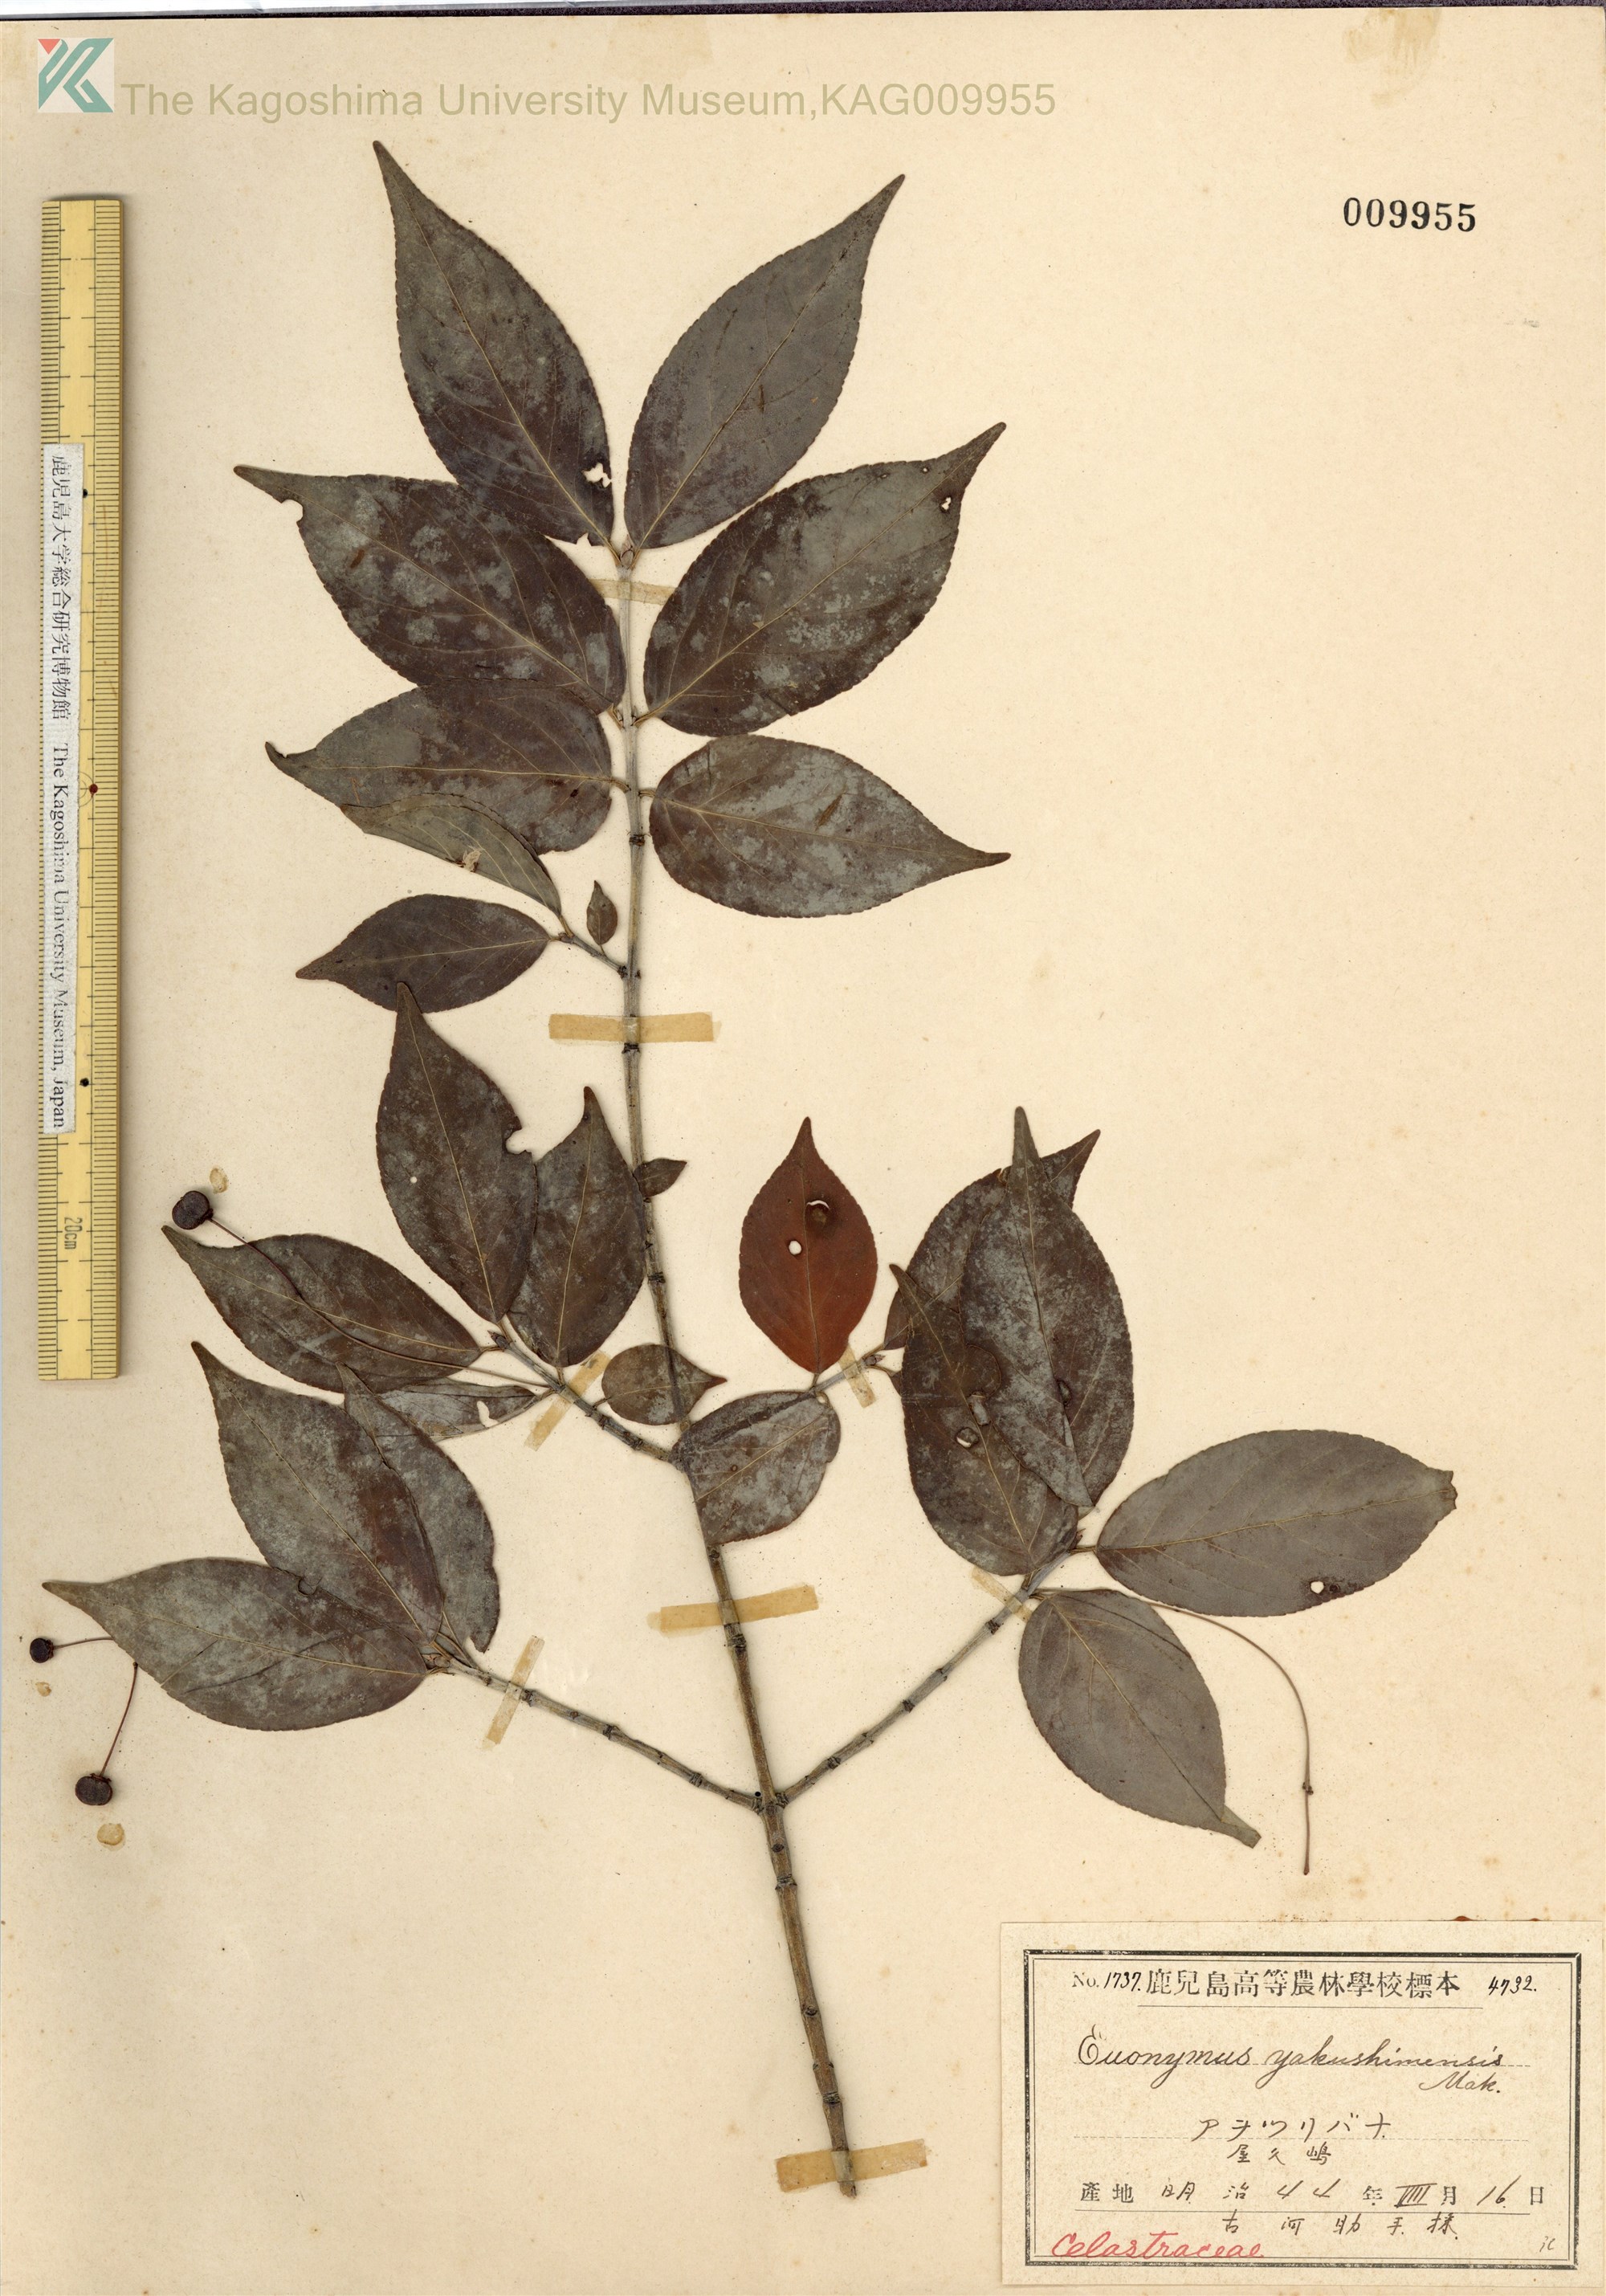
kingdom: Plantae
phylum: Tracheophyta
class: Magnoliopsida
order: Celastrales
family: Celastraceae
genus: Euonymus
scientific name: Euonymus yakushimensis
